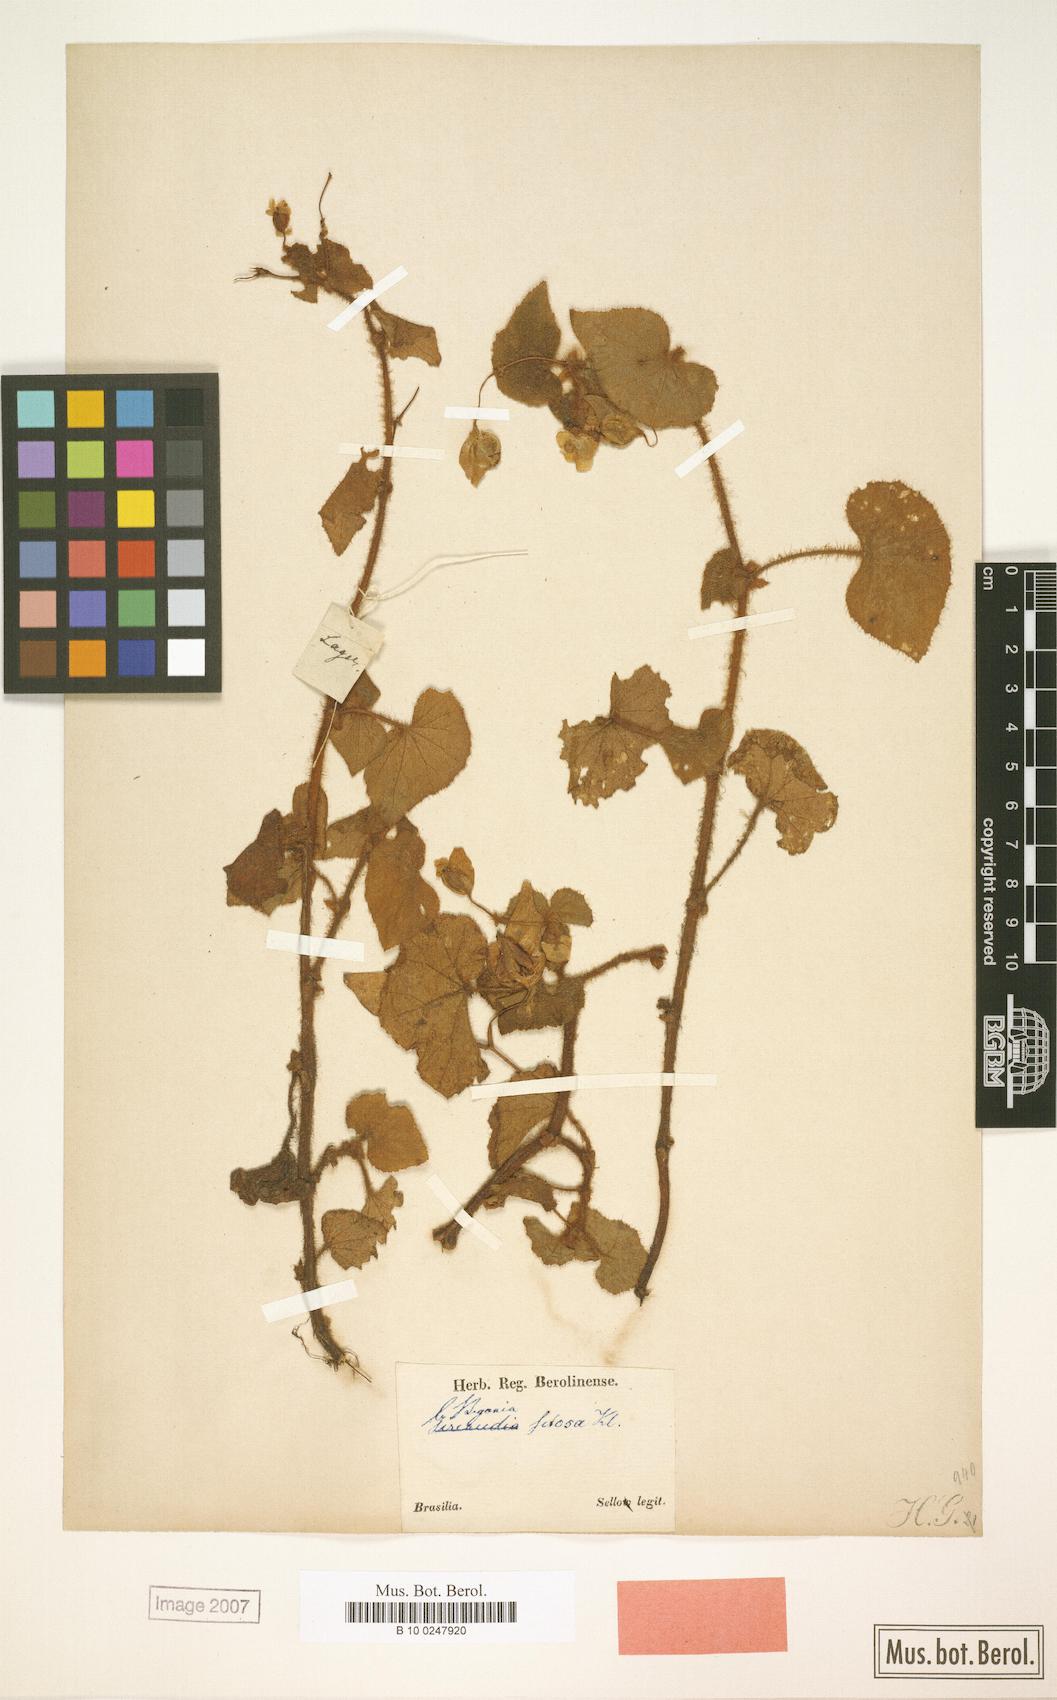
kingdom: Plantae
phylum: Tracheophyta
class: Magnoliopsida
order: Cucurbitales
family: Begoniaceae
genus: Begonia
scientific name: Begonia fischeri
